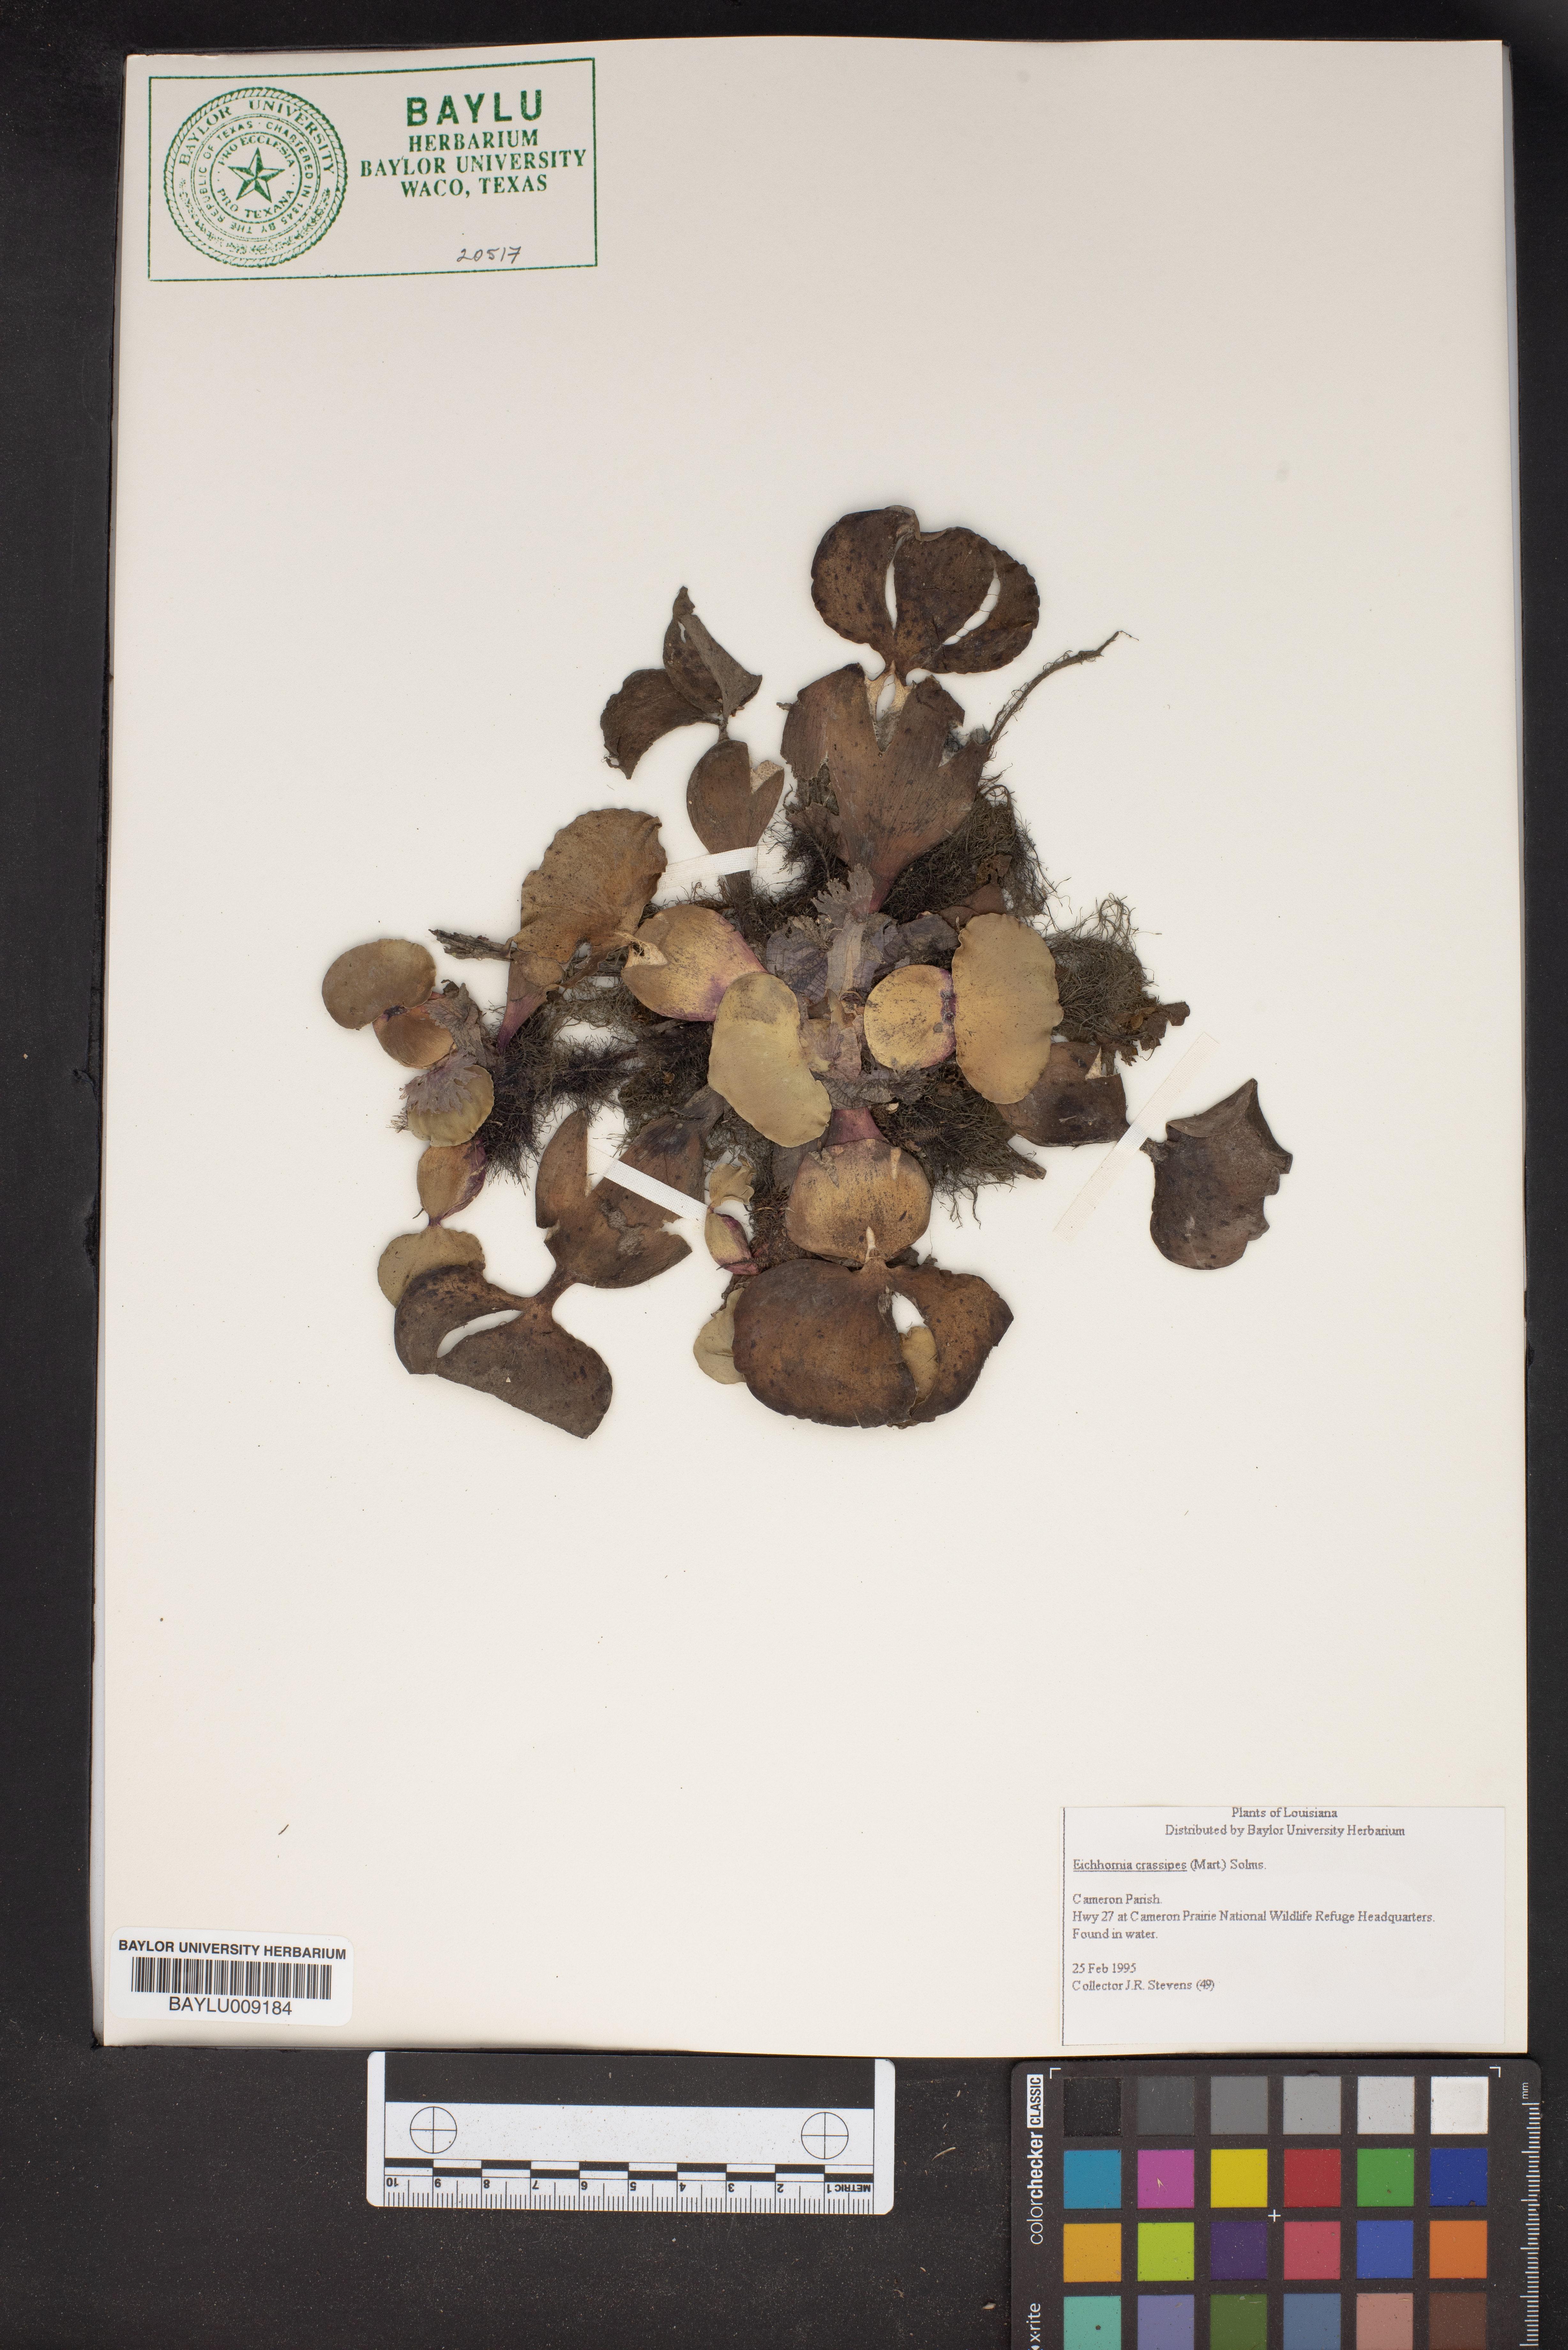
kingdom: Plantae
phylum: Tracheophyta
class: Liliopsida
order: Commelinales
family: Pontederiaceae
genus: Pontederia
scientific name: Pontederia crassipes
